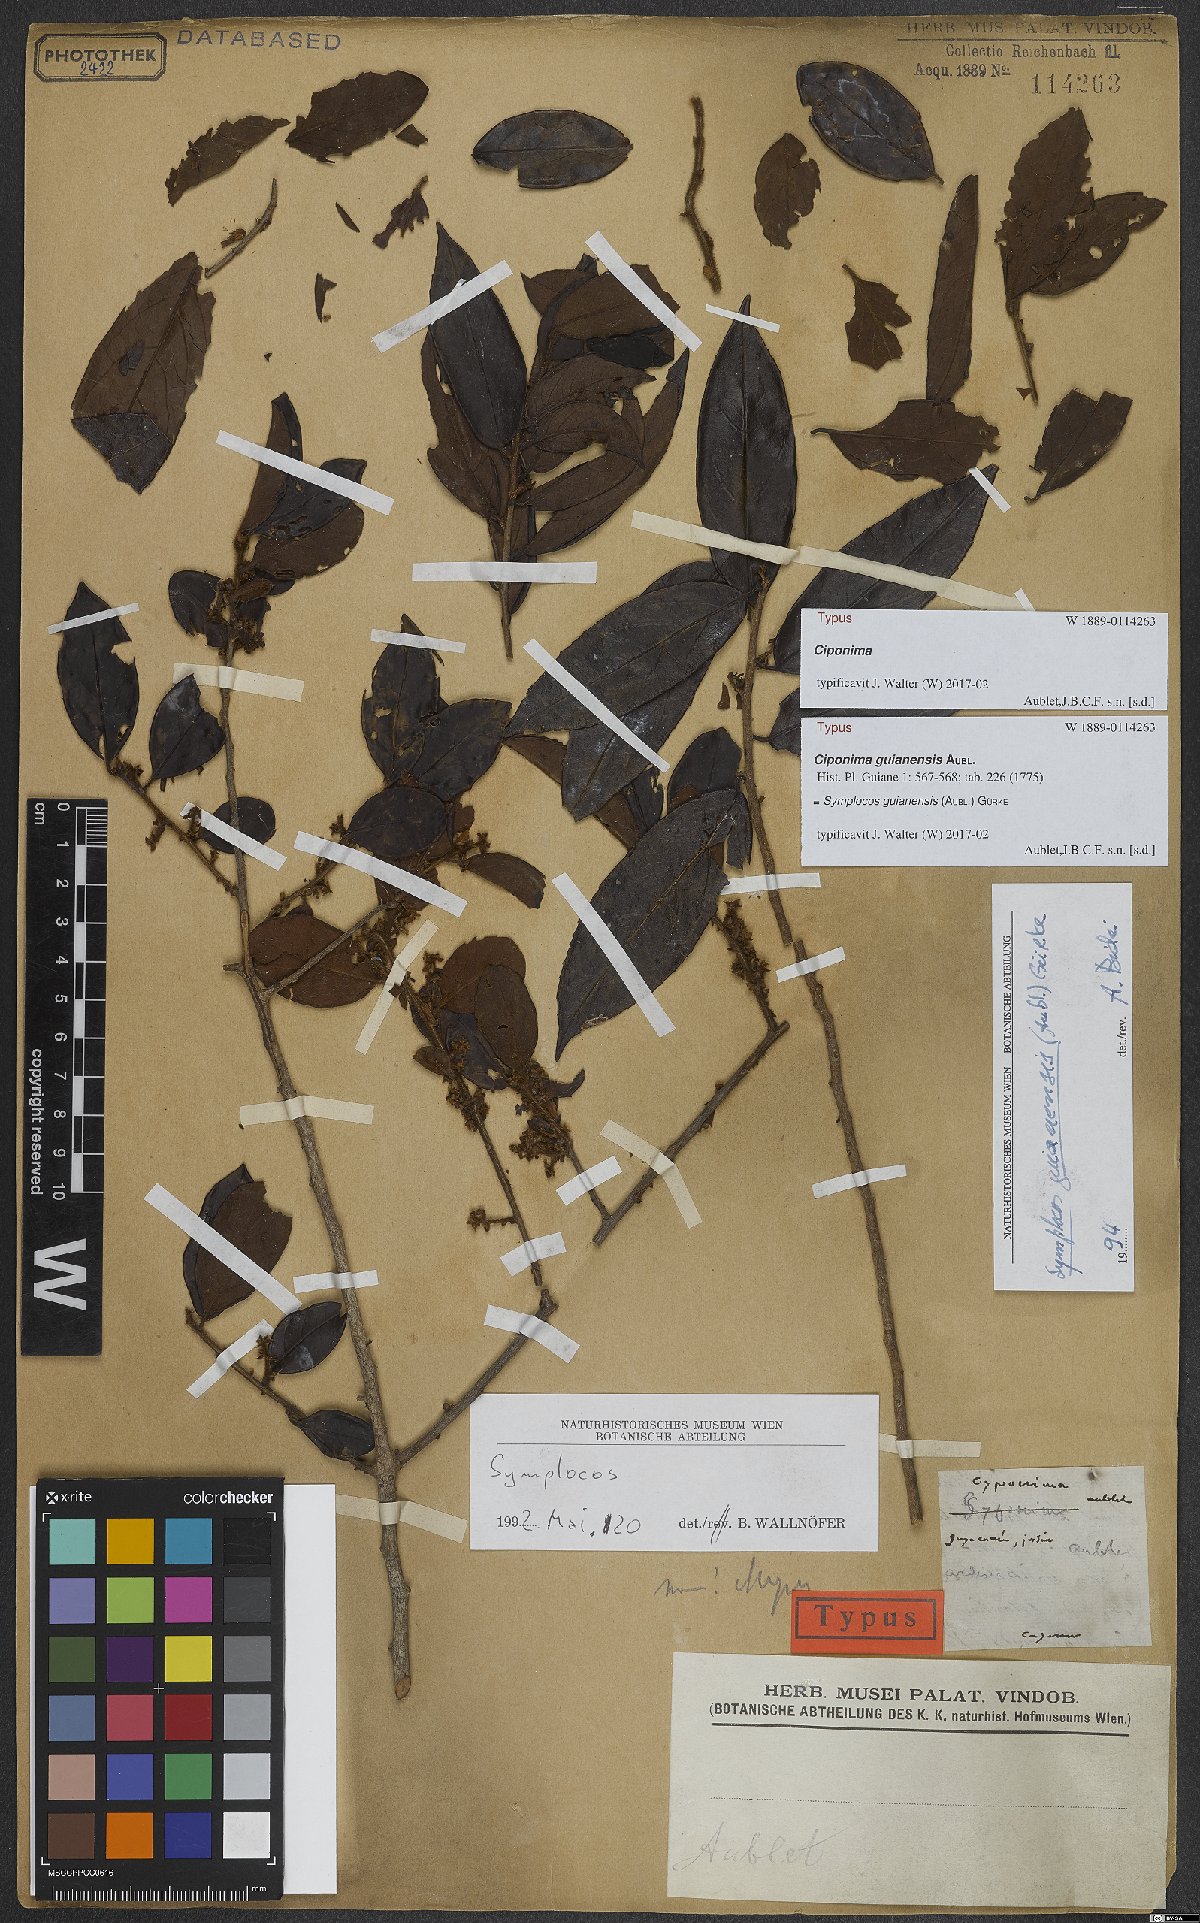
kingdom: Plantae
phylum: Tracheophyta
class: Magnoliopsida
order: Ericales
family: Symplocaceae
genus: Symplocos
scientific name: Symplocos guianensis
